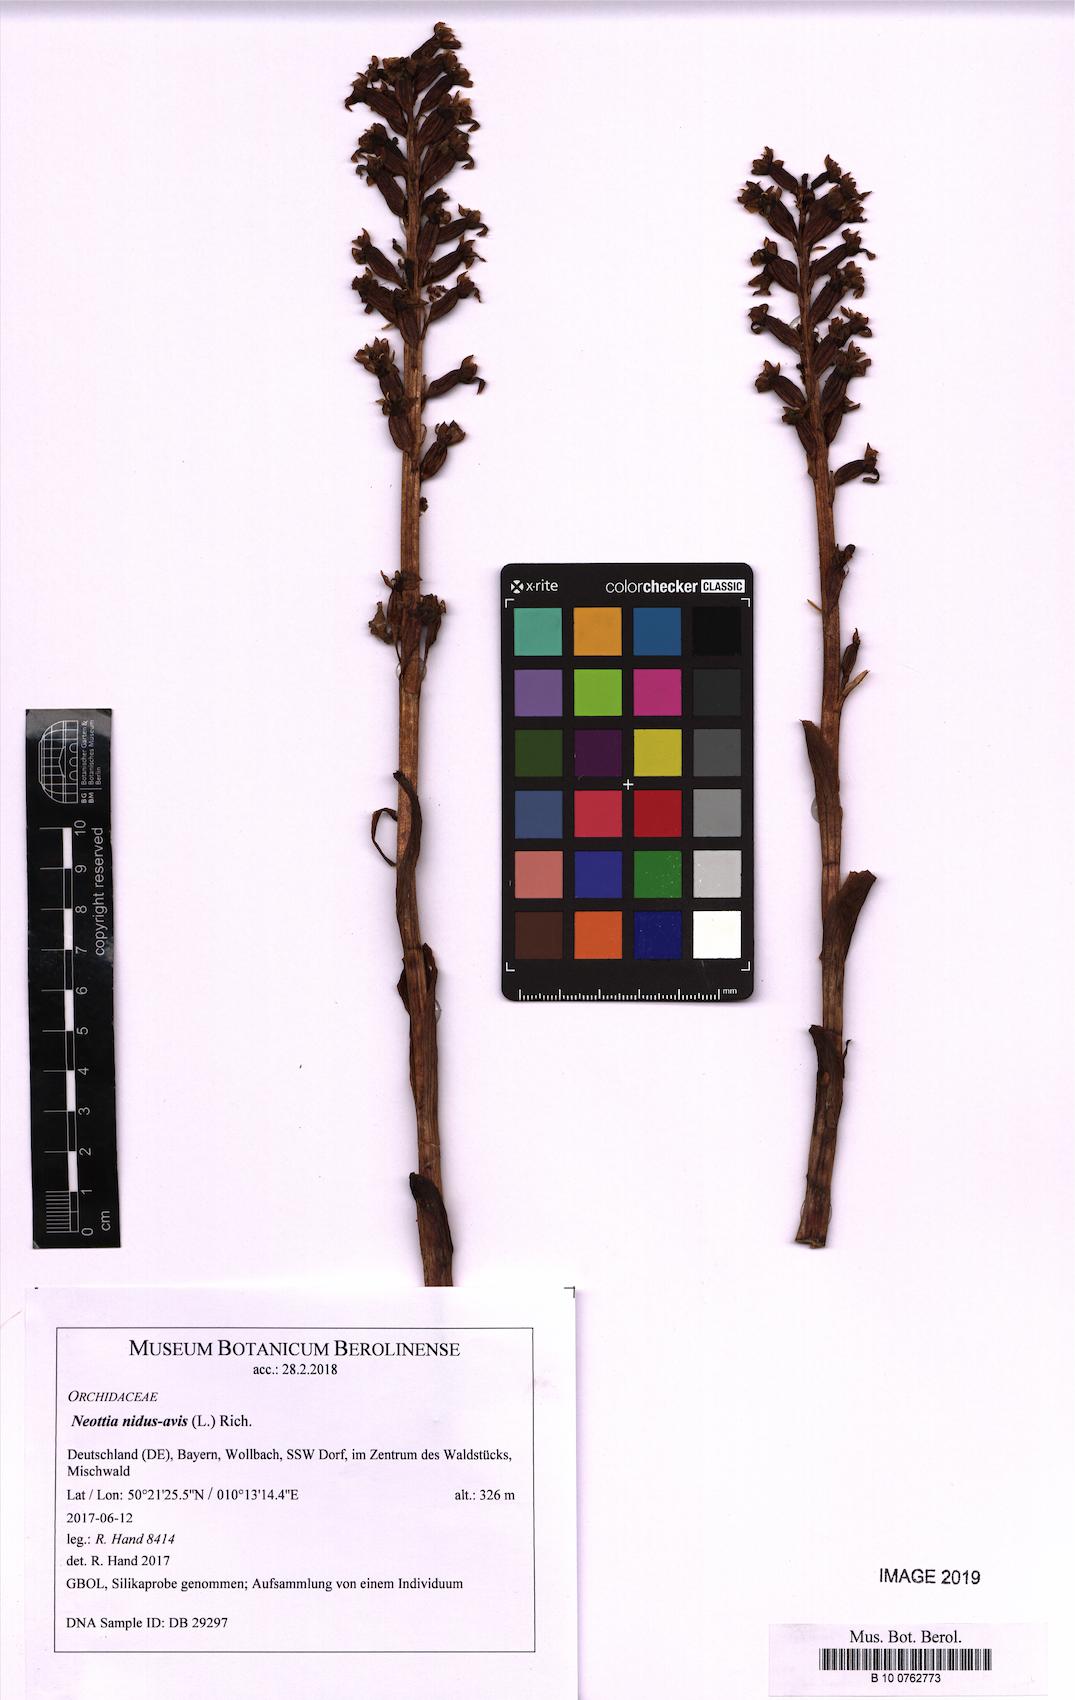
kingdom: Plantae
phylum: Tracheophyta
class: Liliopsida
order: Asparagales
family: Orchidaceae
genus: Neottia
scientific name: Neottia nidus-avis
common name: Bird's-nest orchid
